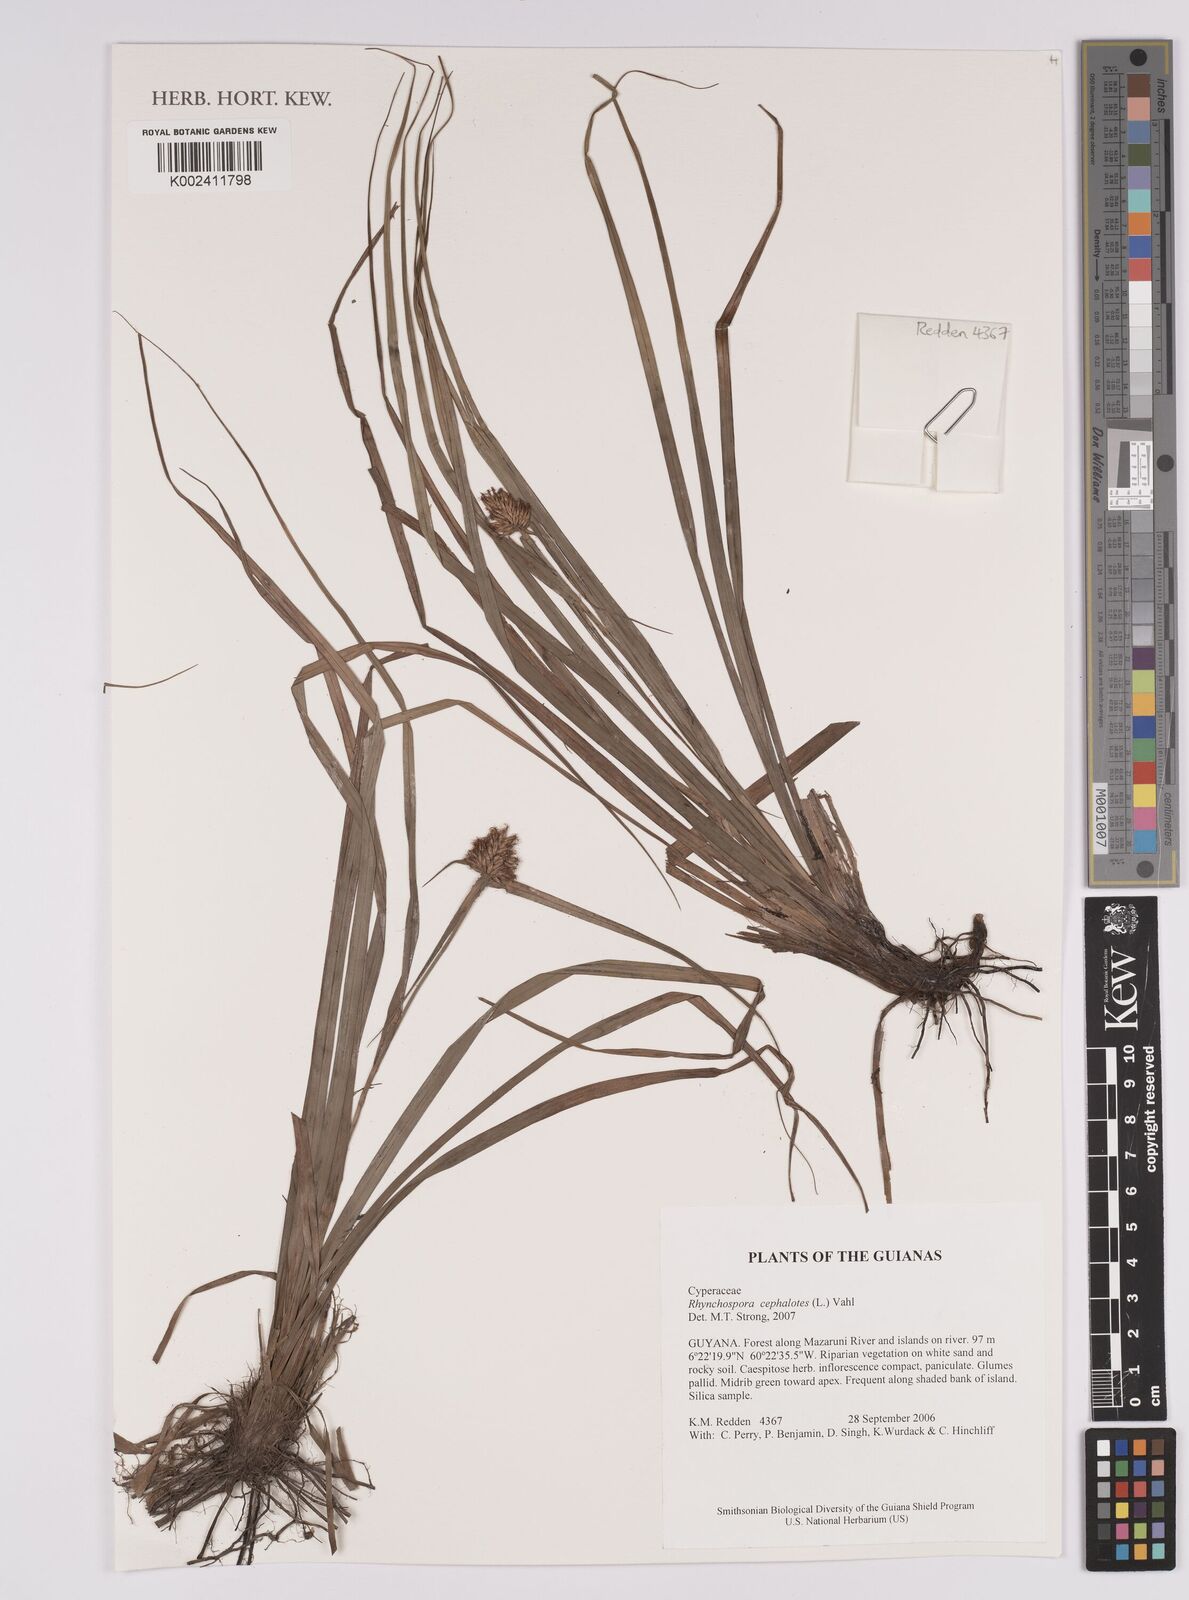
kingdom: Plantae
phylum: Tracheophyta
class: Liliopsida
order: Poales
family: Cyperaceae
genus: Rhynchospora
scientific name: Rhynchospora cephalotes
